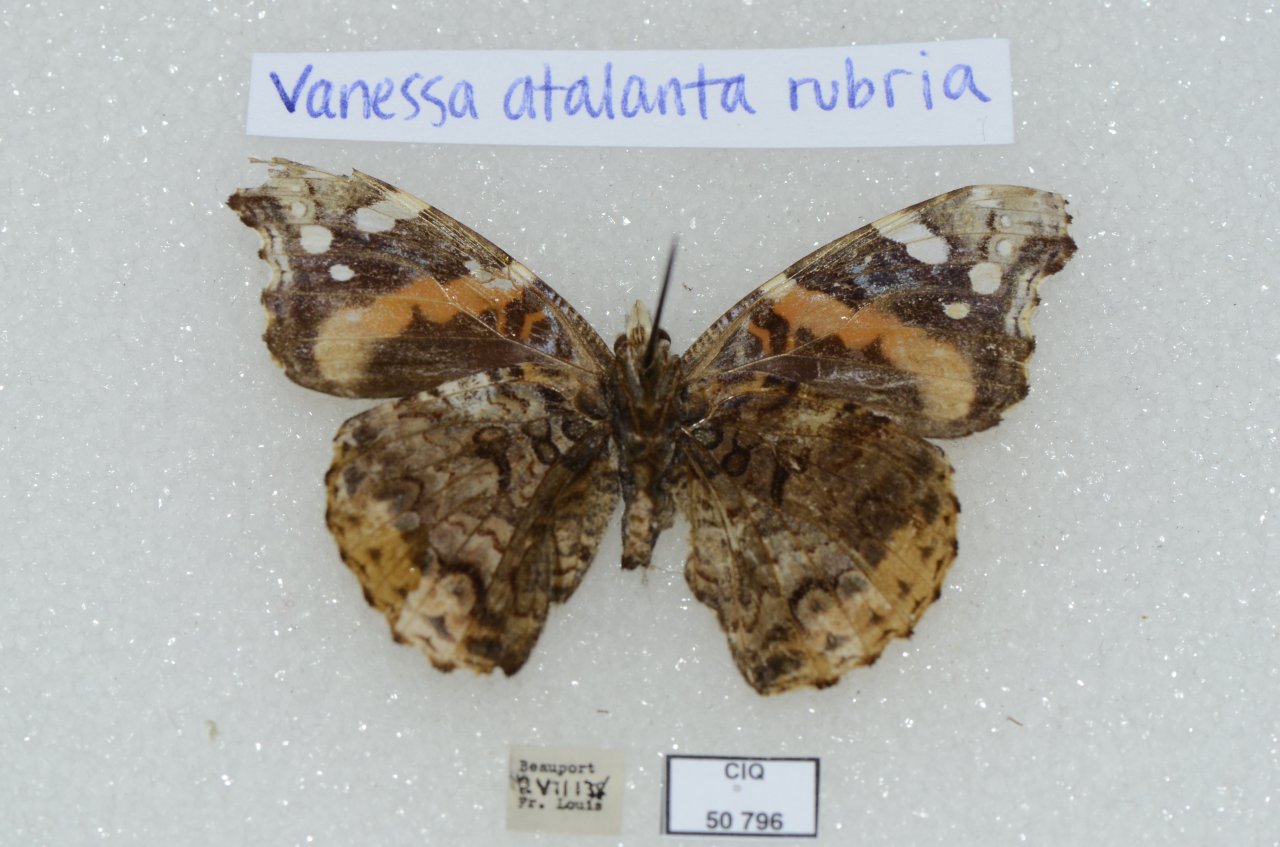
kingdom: Animalia
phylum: Arthropoda
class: Insecta
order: Lepidoptera
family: Nymphalidae
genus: Vanessa
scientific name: Vanessa atalanta
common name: Red Admiral
